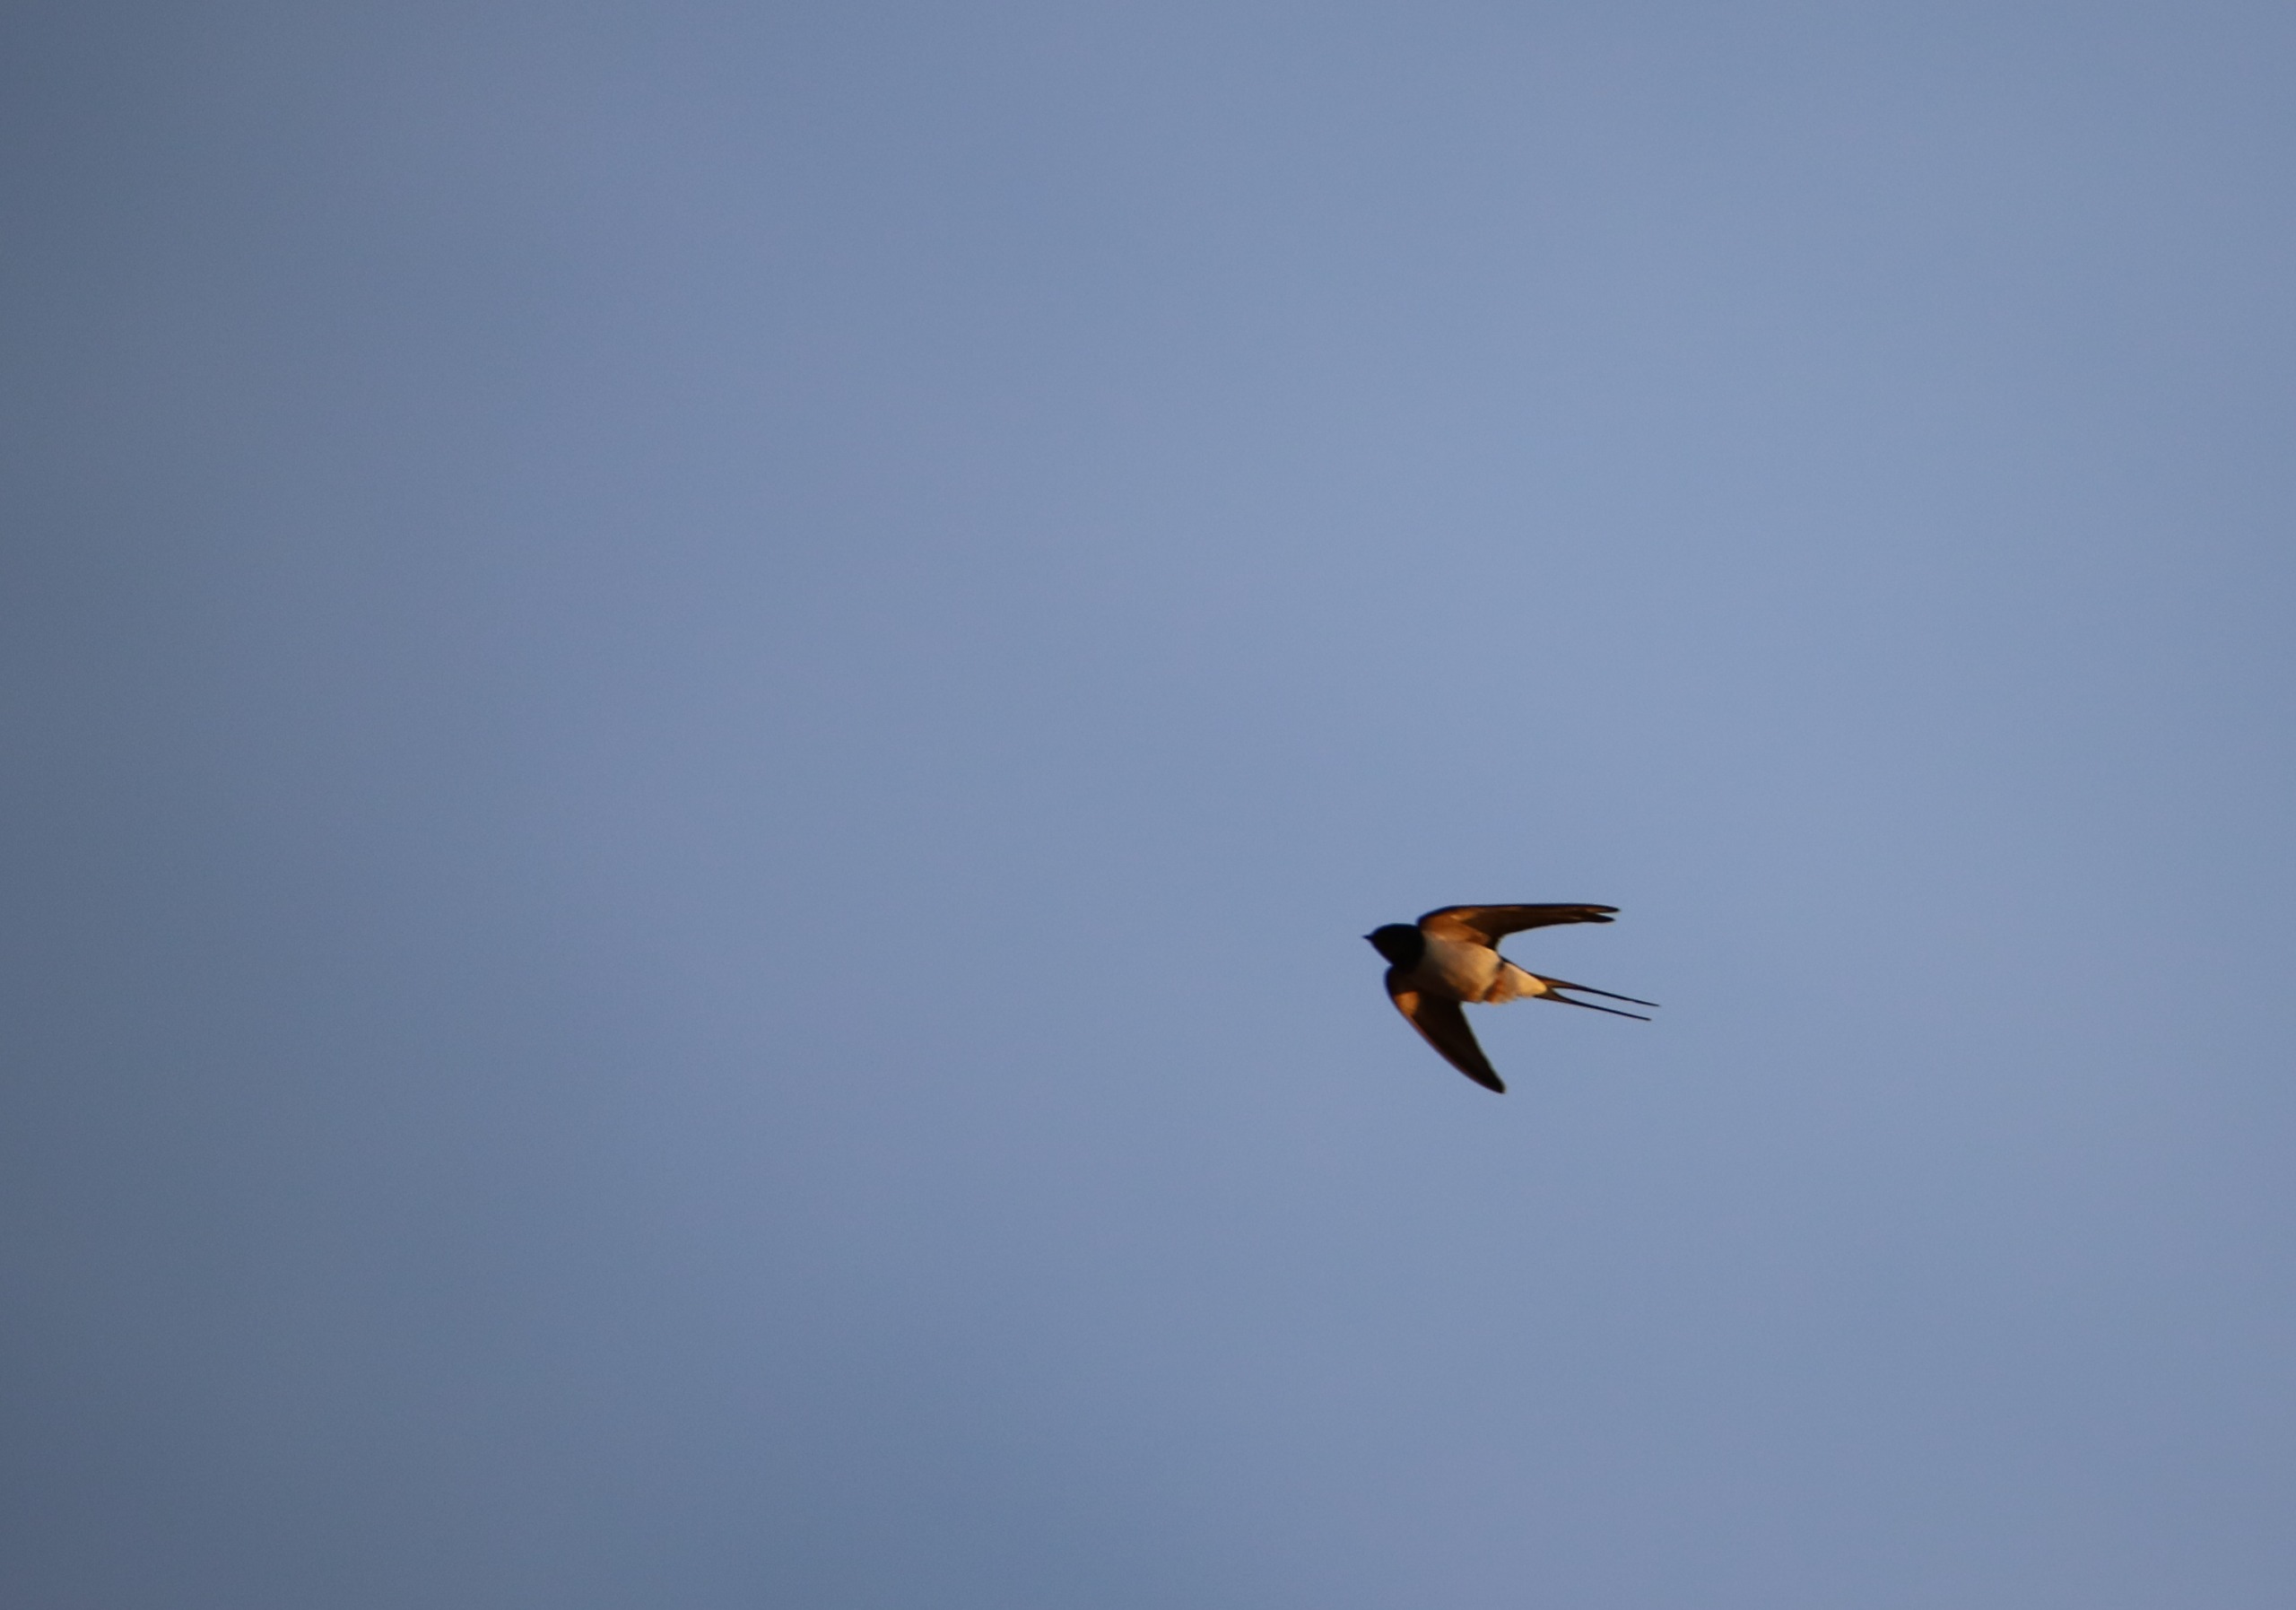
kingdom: Animalia
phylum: Chordata
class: Aves
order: Passeriformes
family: Hirundinidae
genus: Hirundo
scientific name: Hirundo rustica
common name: Landsvale
